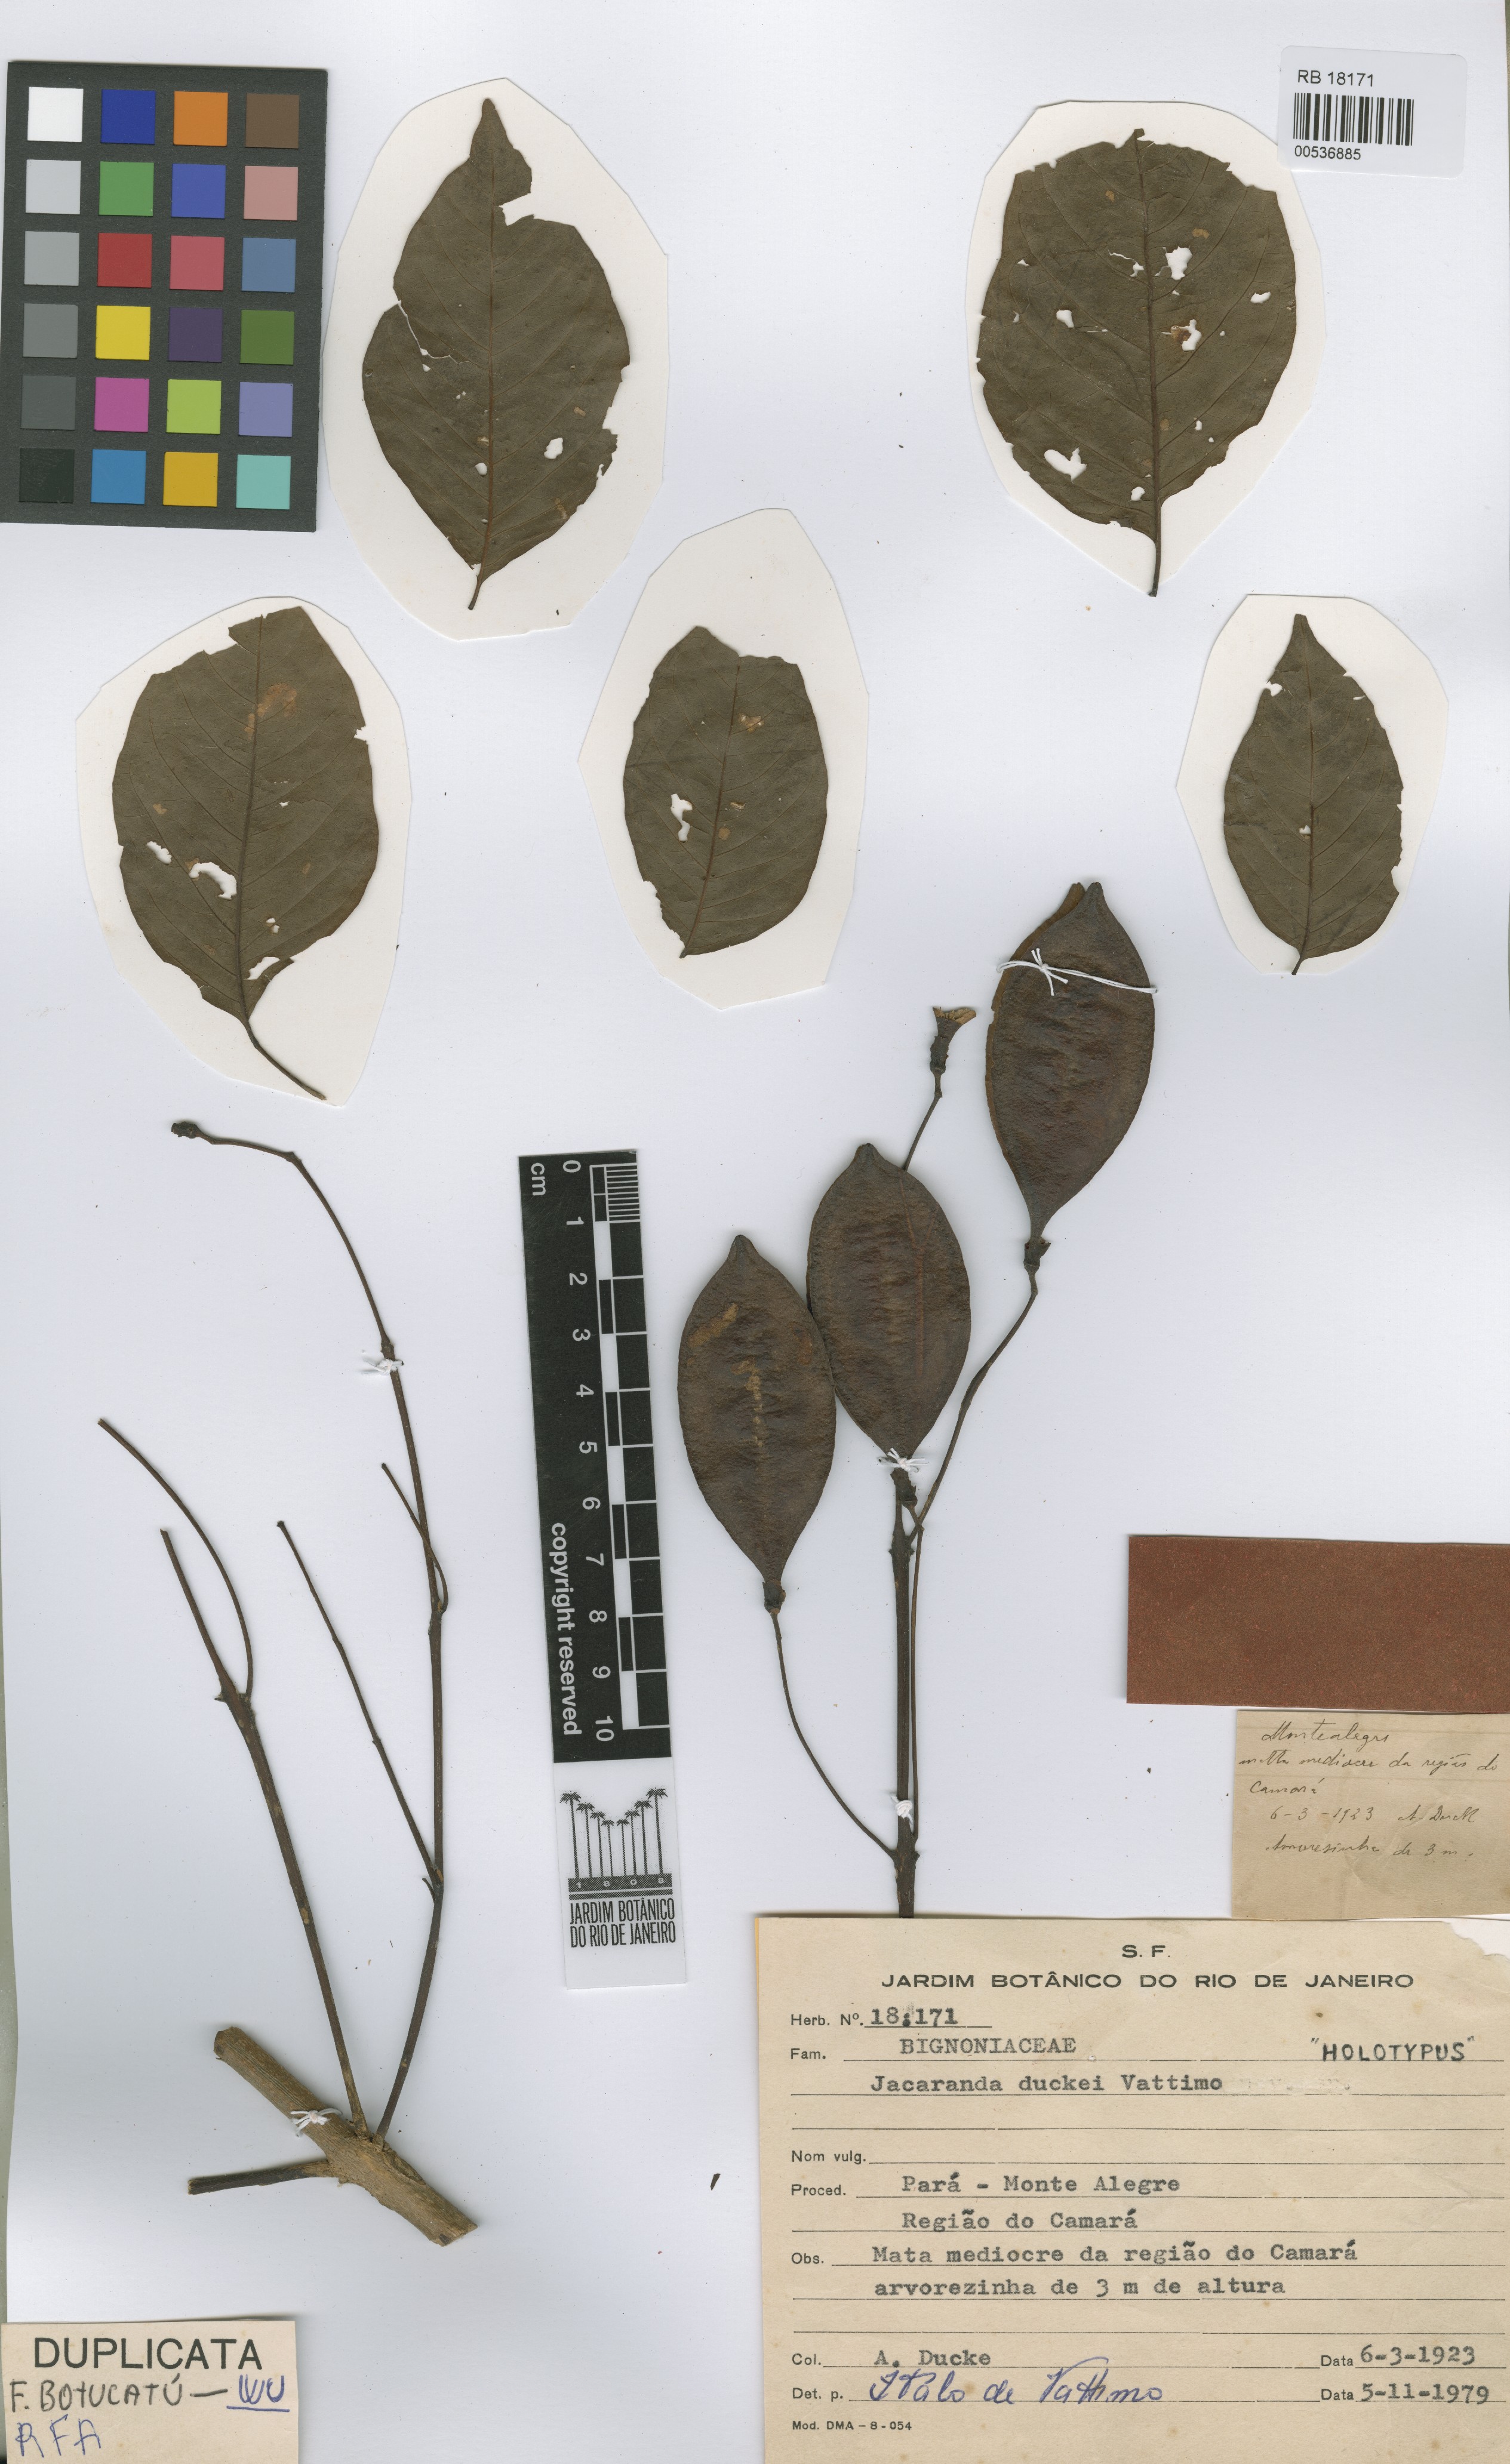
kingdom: Plantae
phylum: Tracheophyta
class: Magnoliopsida
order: Lamiales
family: Bignoniaceae
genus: Jacaranda
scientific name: Jacaranda duckei
